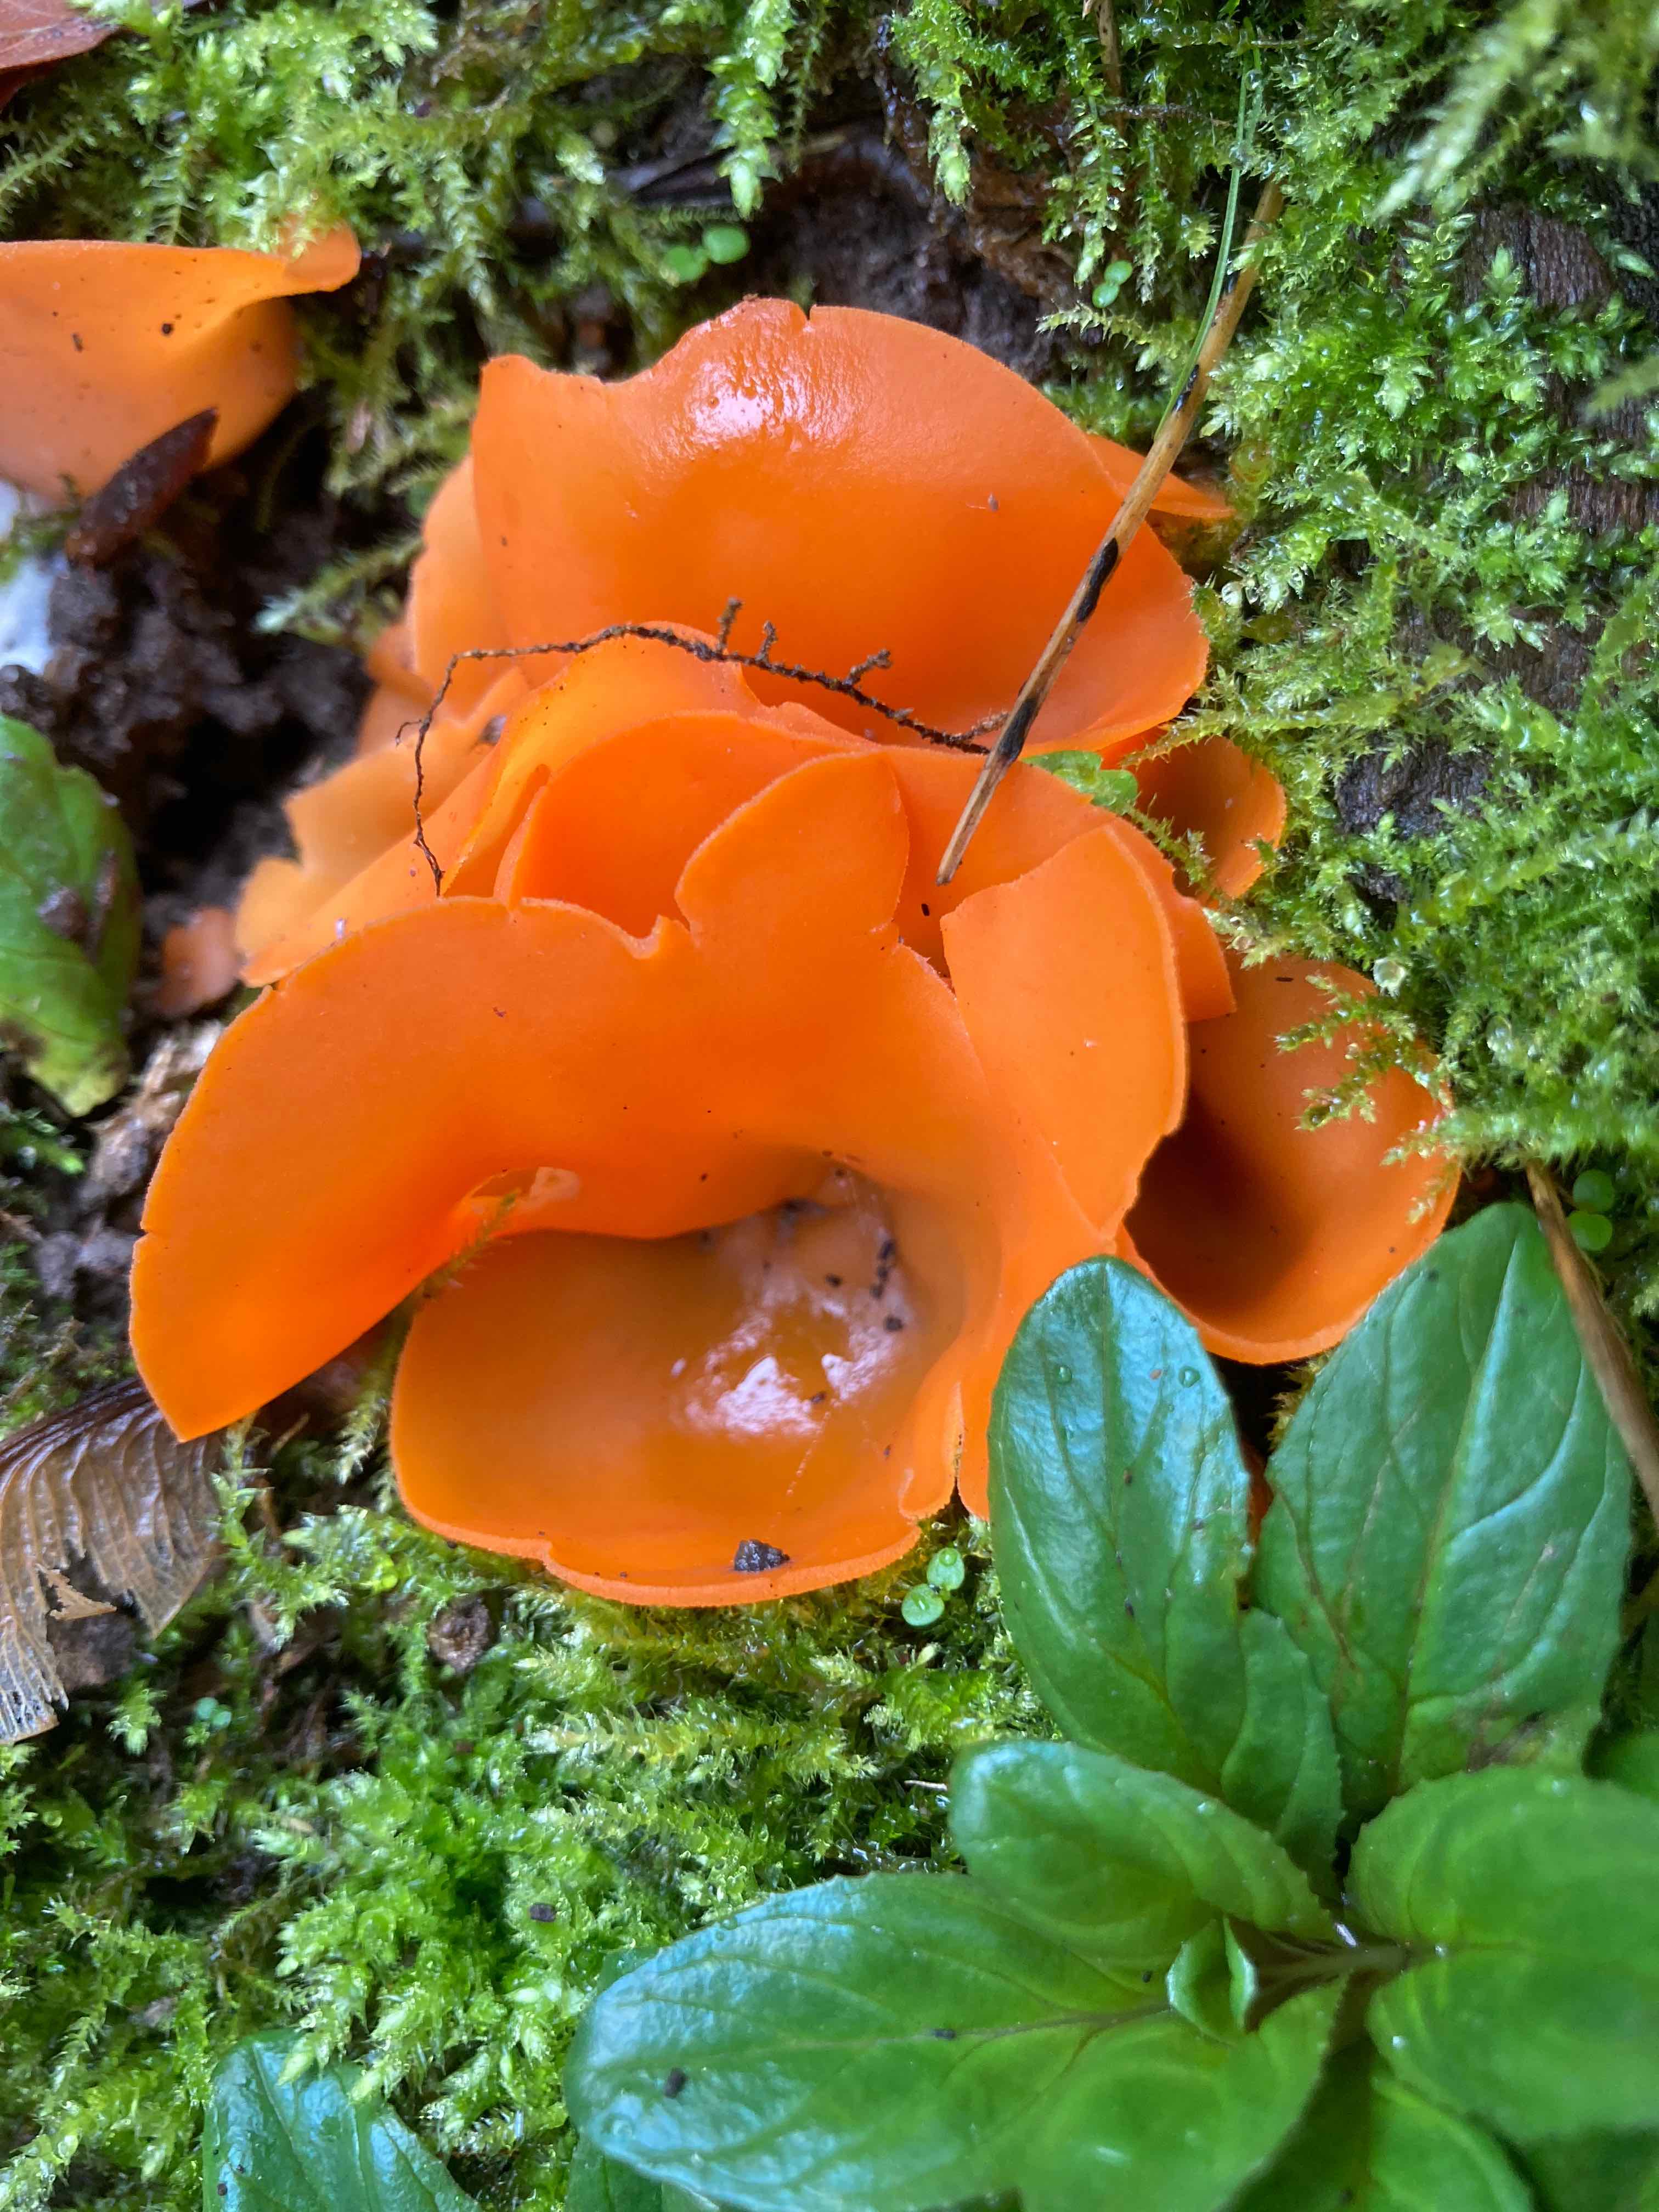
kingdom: Fungi
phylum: Ascomycota
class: Pezizomycetes
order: Pezizales
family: Pyronemataceae
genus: Aleuria
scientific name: Aleuria aurantia
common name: almindelig orangebæger
